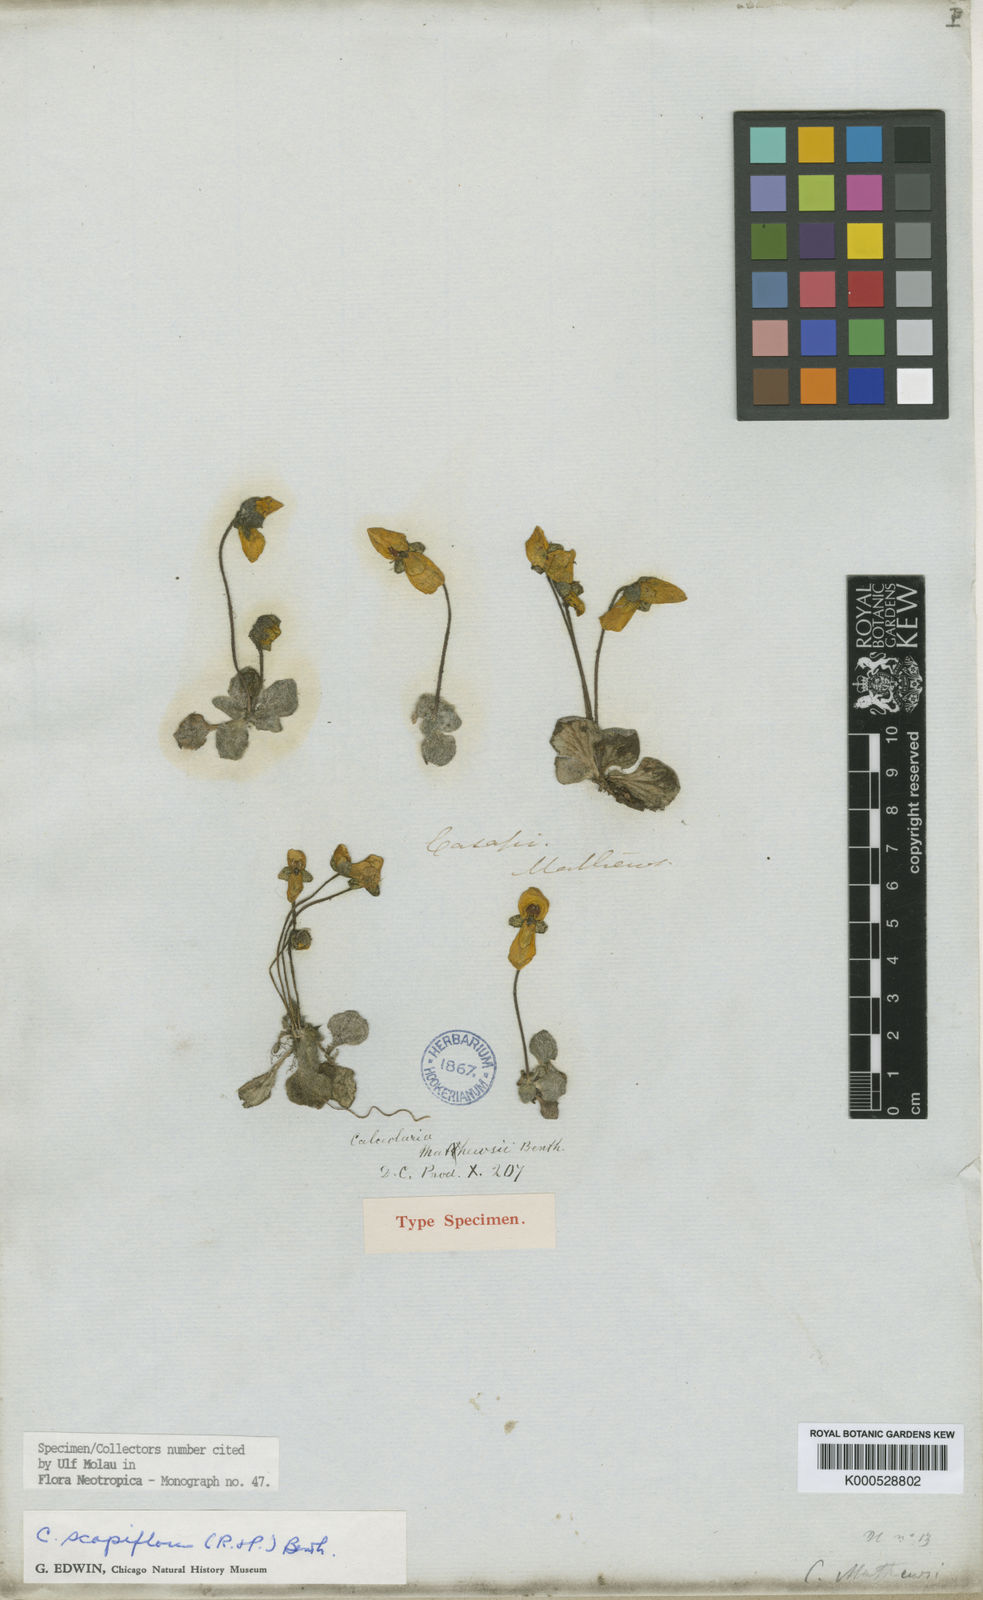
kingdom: Plantae
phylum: Tracheophyta
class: Magnoliopsida
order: Lamiales
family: Calceolariaceae
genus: Calceolaria
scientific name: Calceolaria scapiflora
